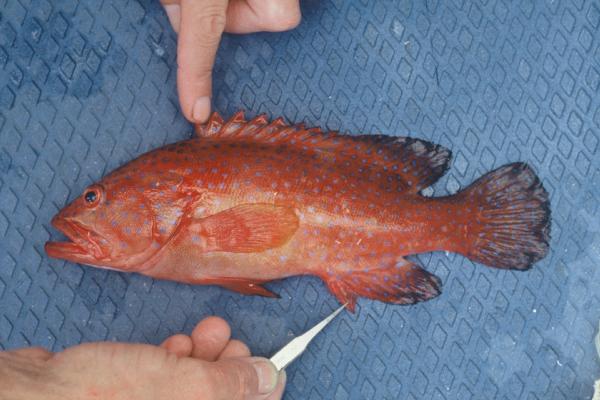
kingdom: Animalia
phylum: Chordata
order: Perciformes
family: Serranidae
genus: Cephalopholis
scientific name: Cephalopholis miniata
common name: Coral hind
